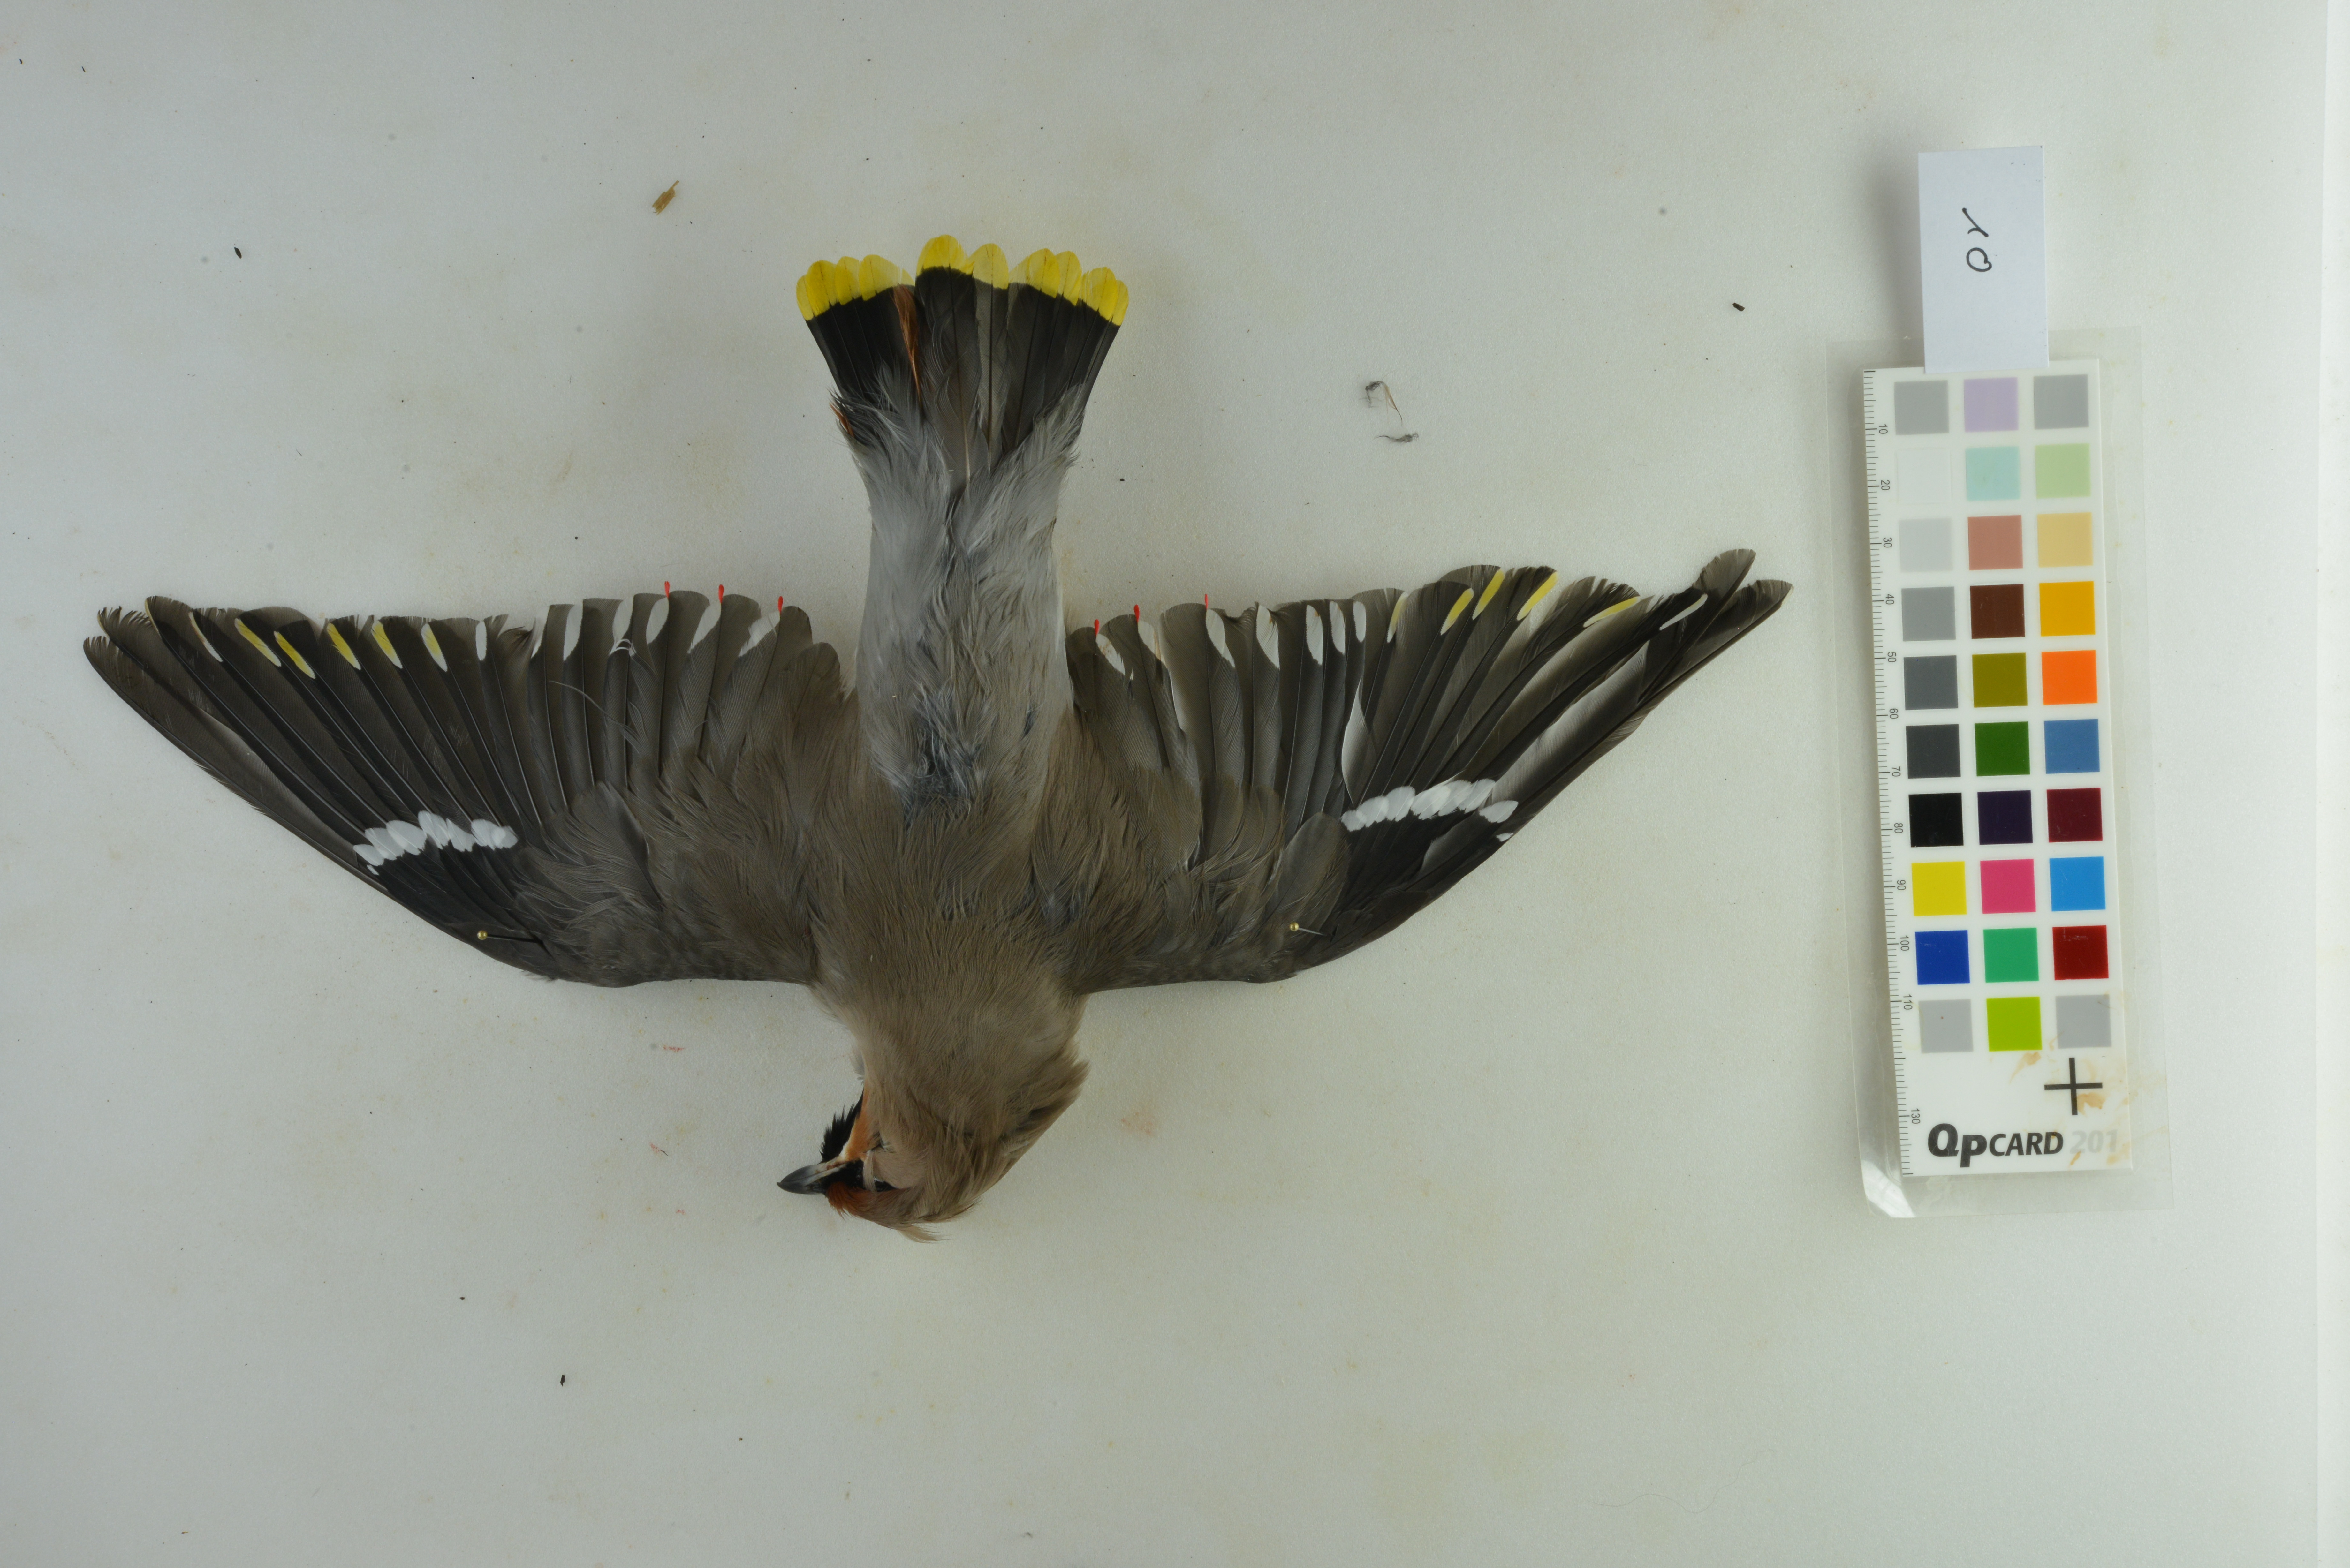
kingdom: Animalia
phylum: Chordata
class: Aves
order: Passeriformes
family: Bombycillidae
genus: Bombycilla
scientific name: Bombycilla garrulus
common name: Bohemian waxwing
